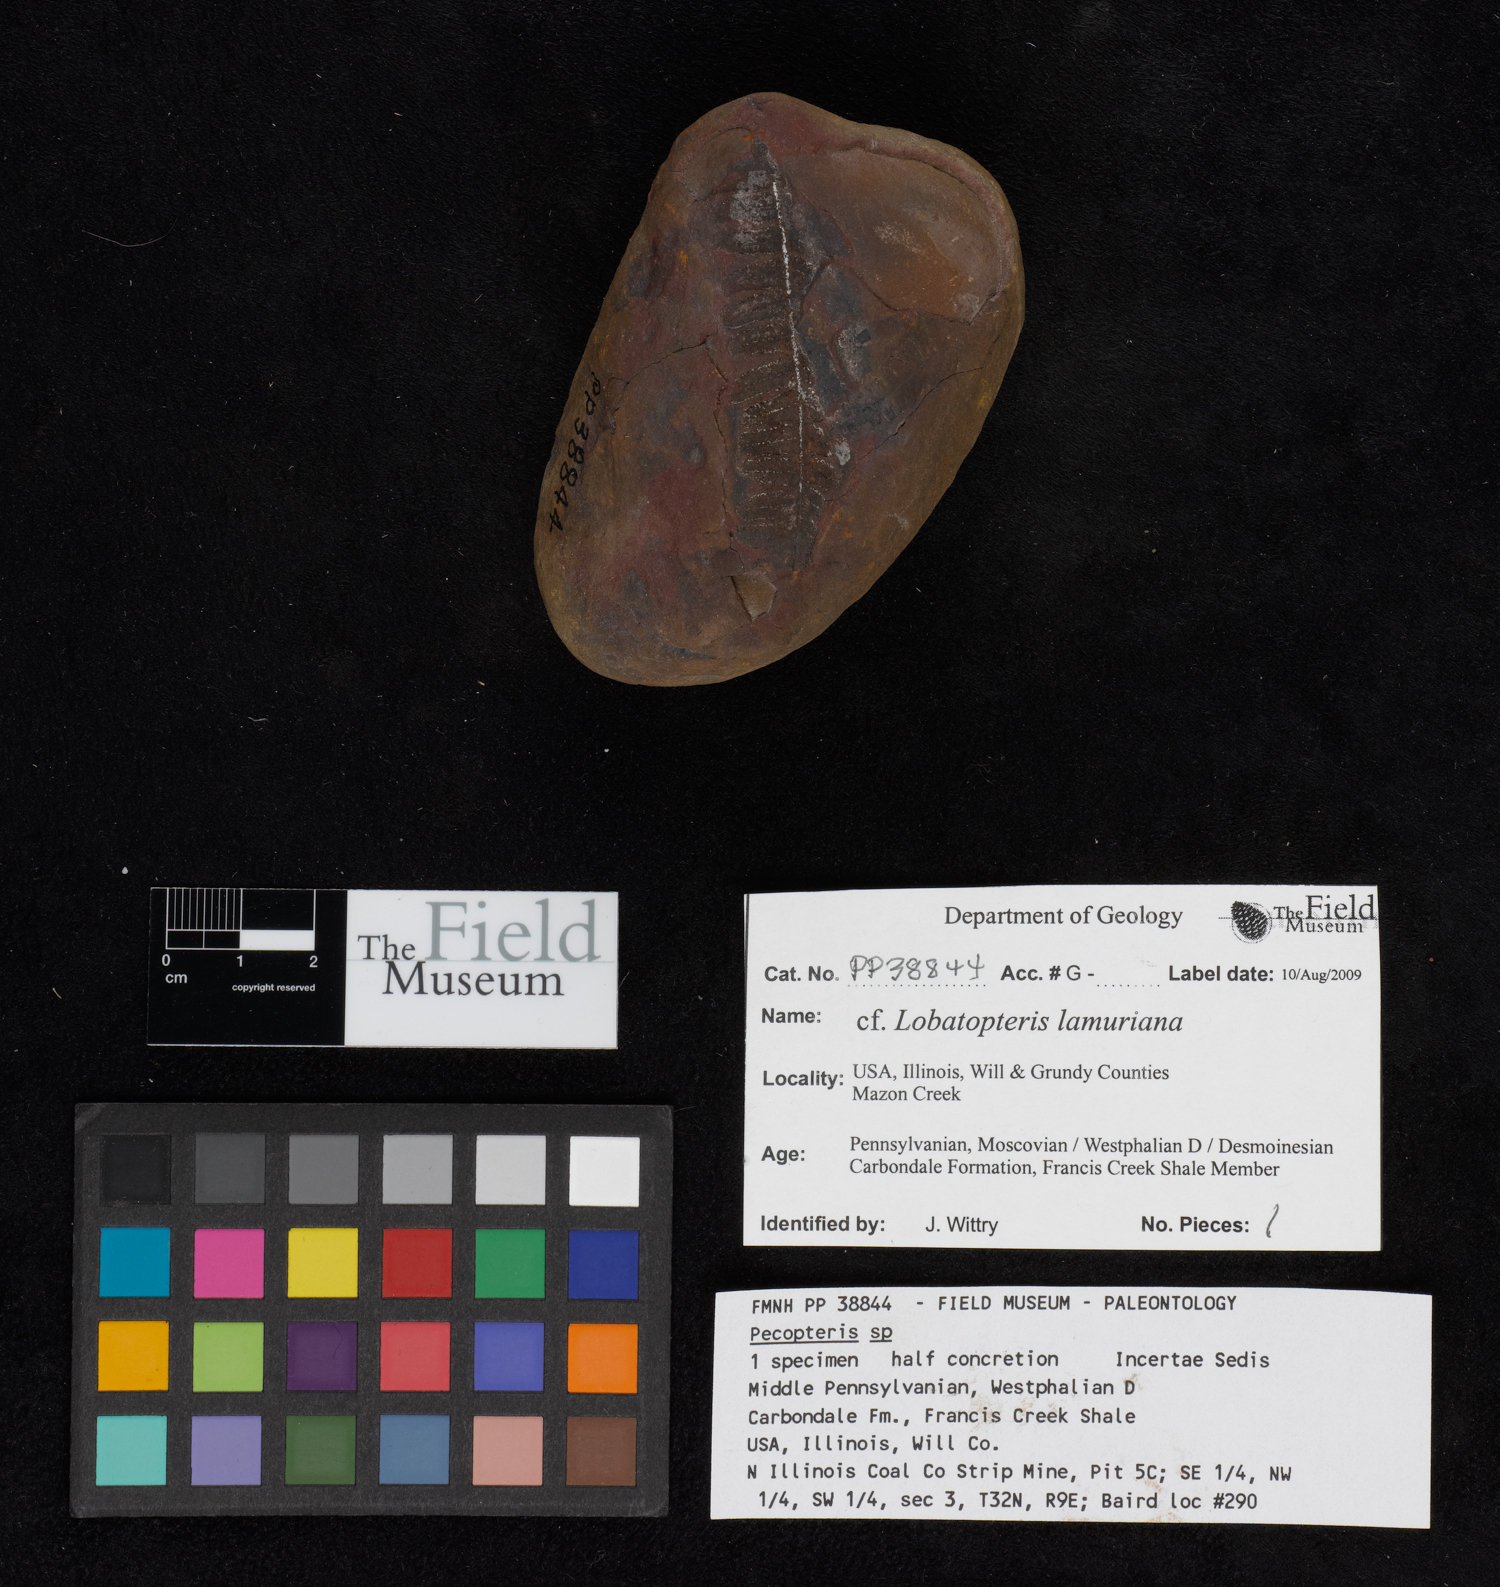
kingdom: Plantae
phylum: Tracheophyta
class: Polypodiopsida
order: Marattiales
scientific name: Marattiales
